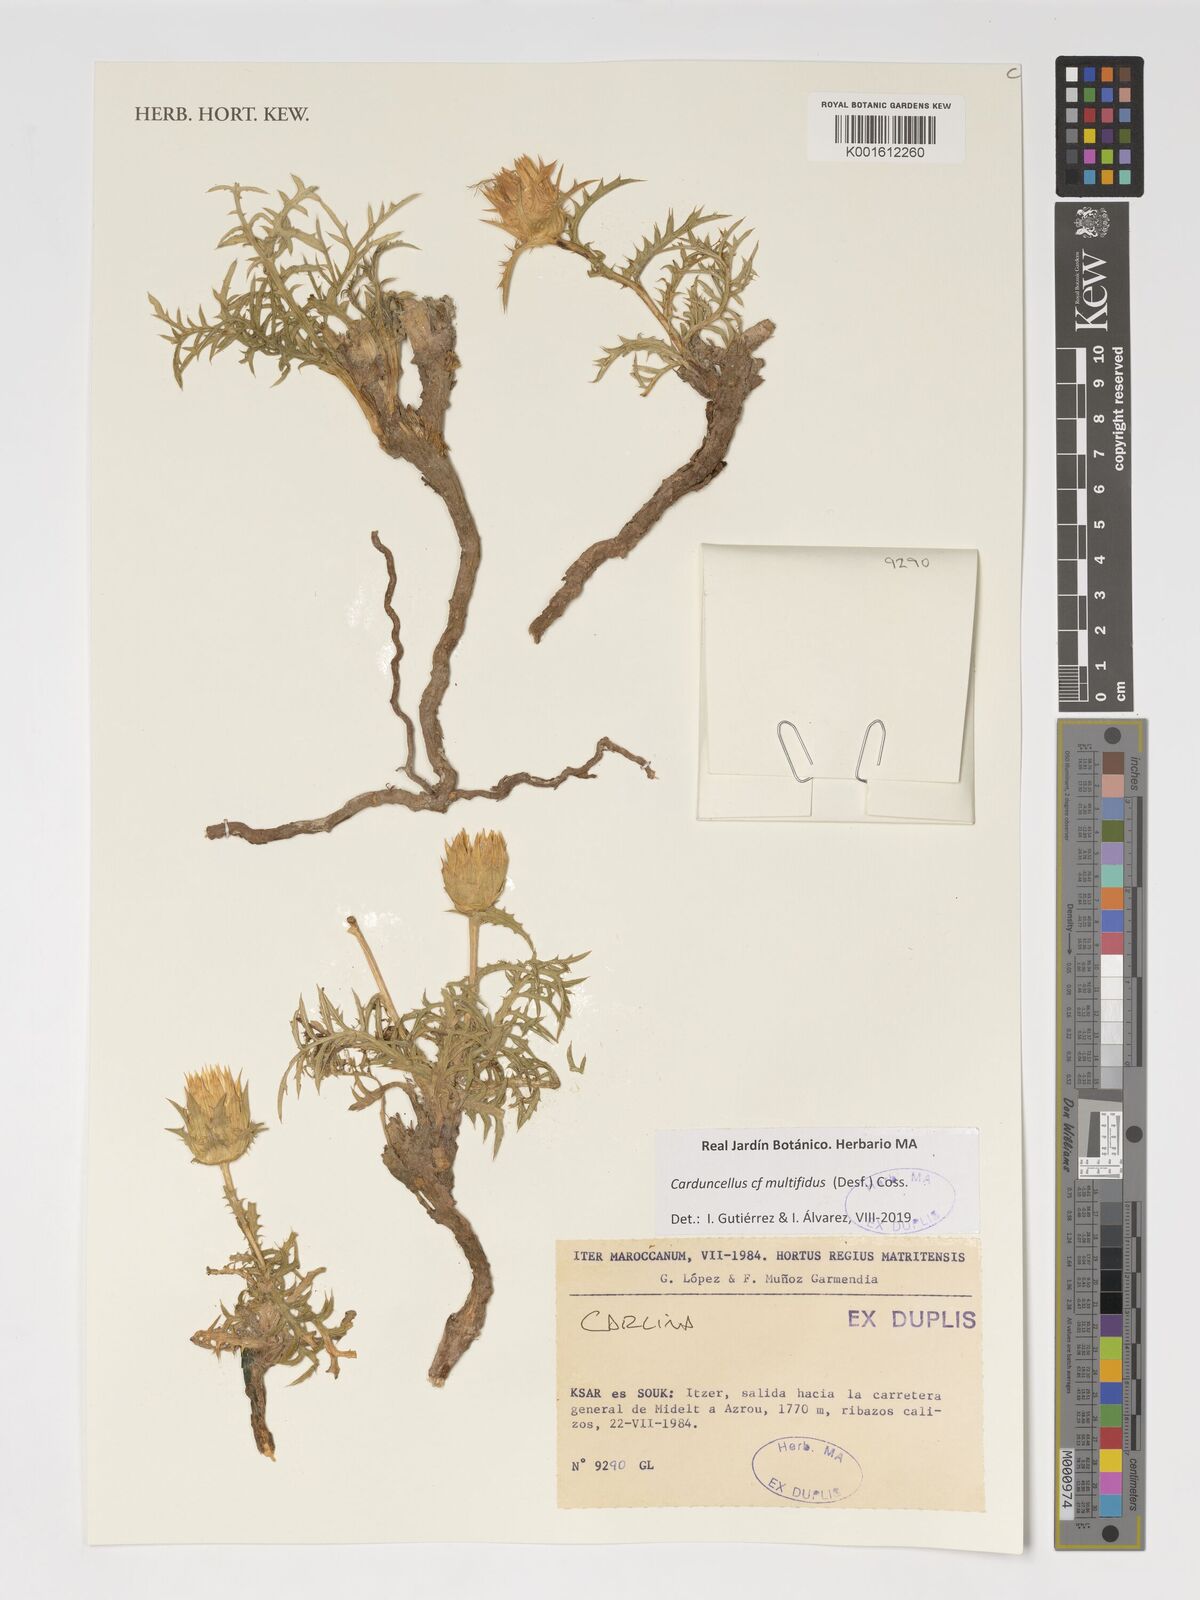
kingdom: Plantae
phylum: Tracheophyta
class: Magnoliopsida
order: Asterales
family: Asteraceae
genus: Carduncellus
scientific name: Carduncellus caeruleus
